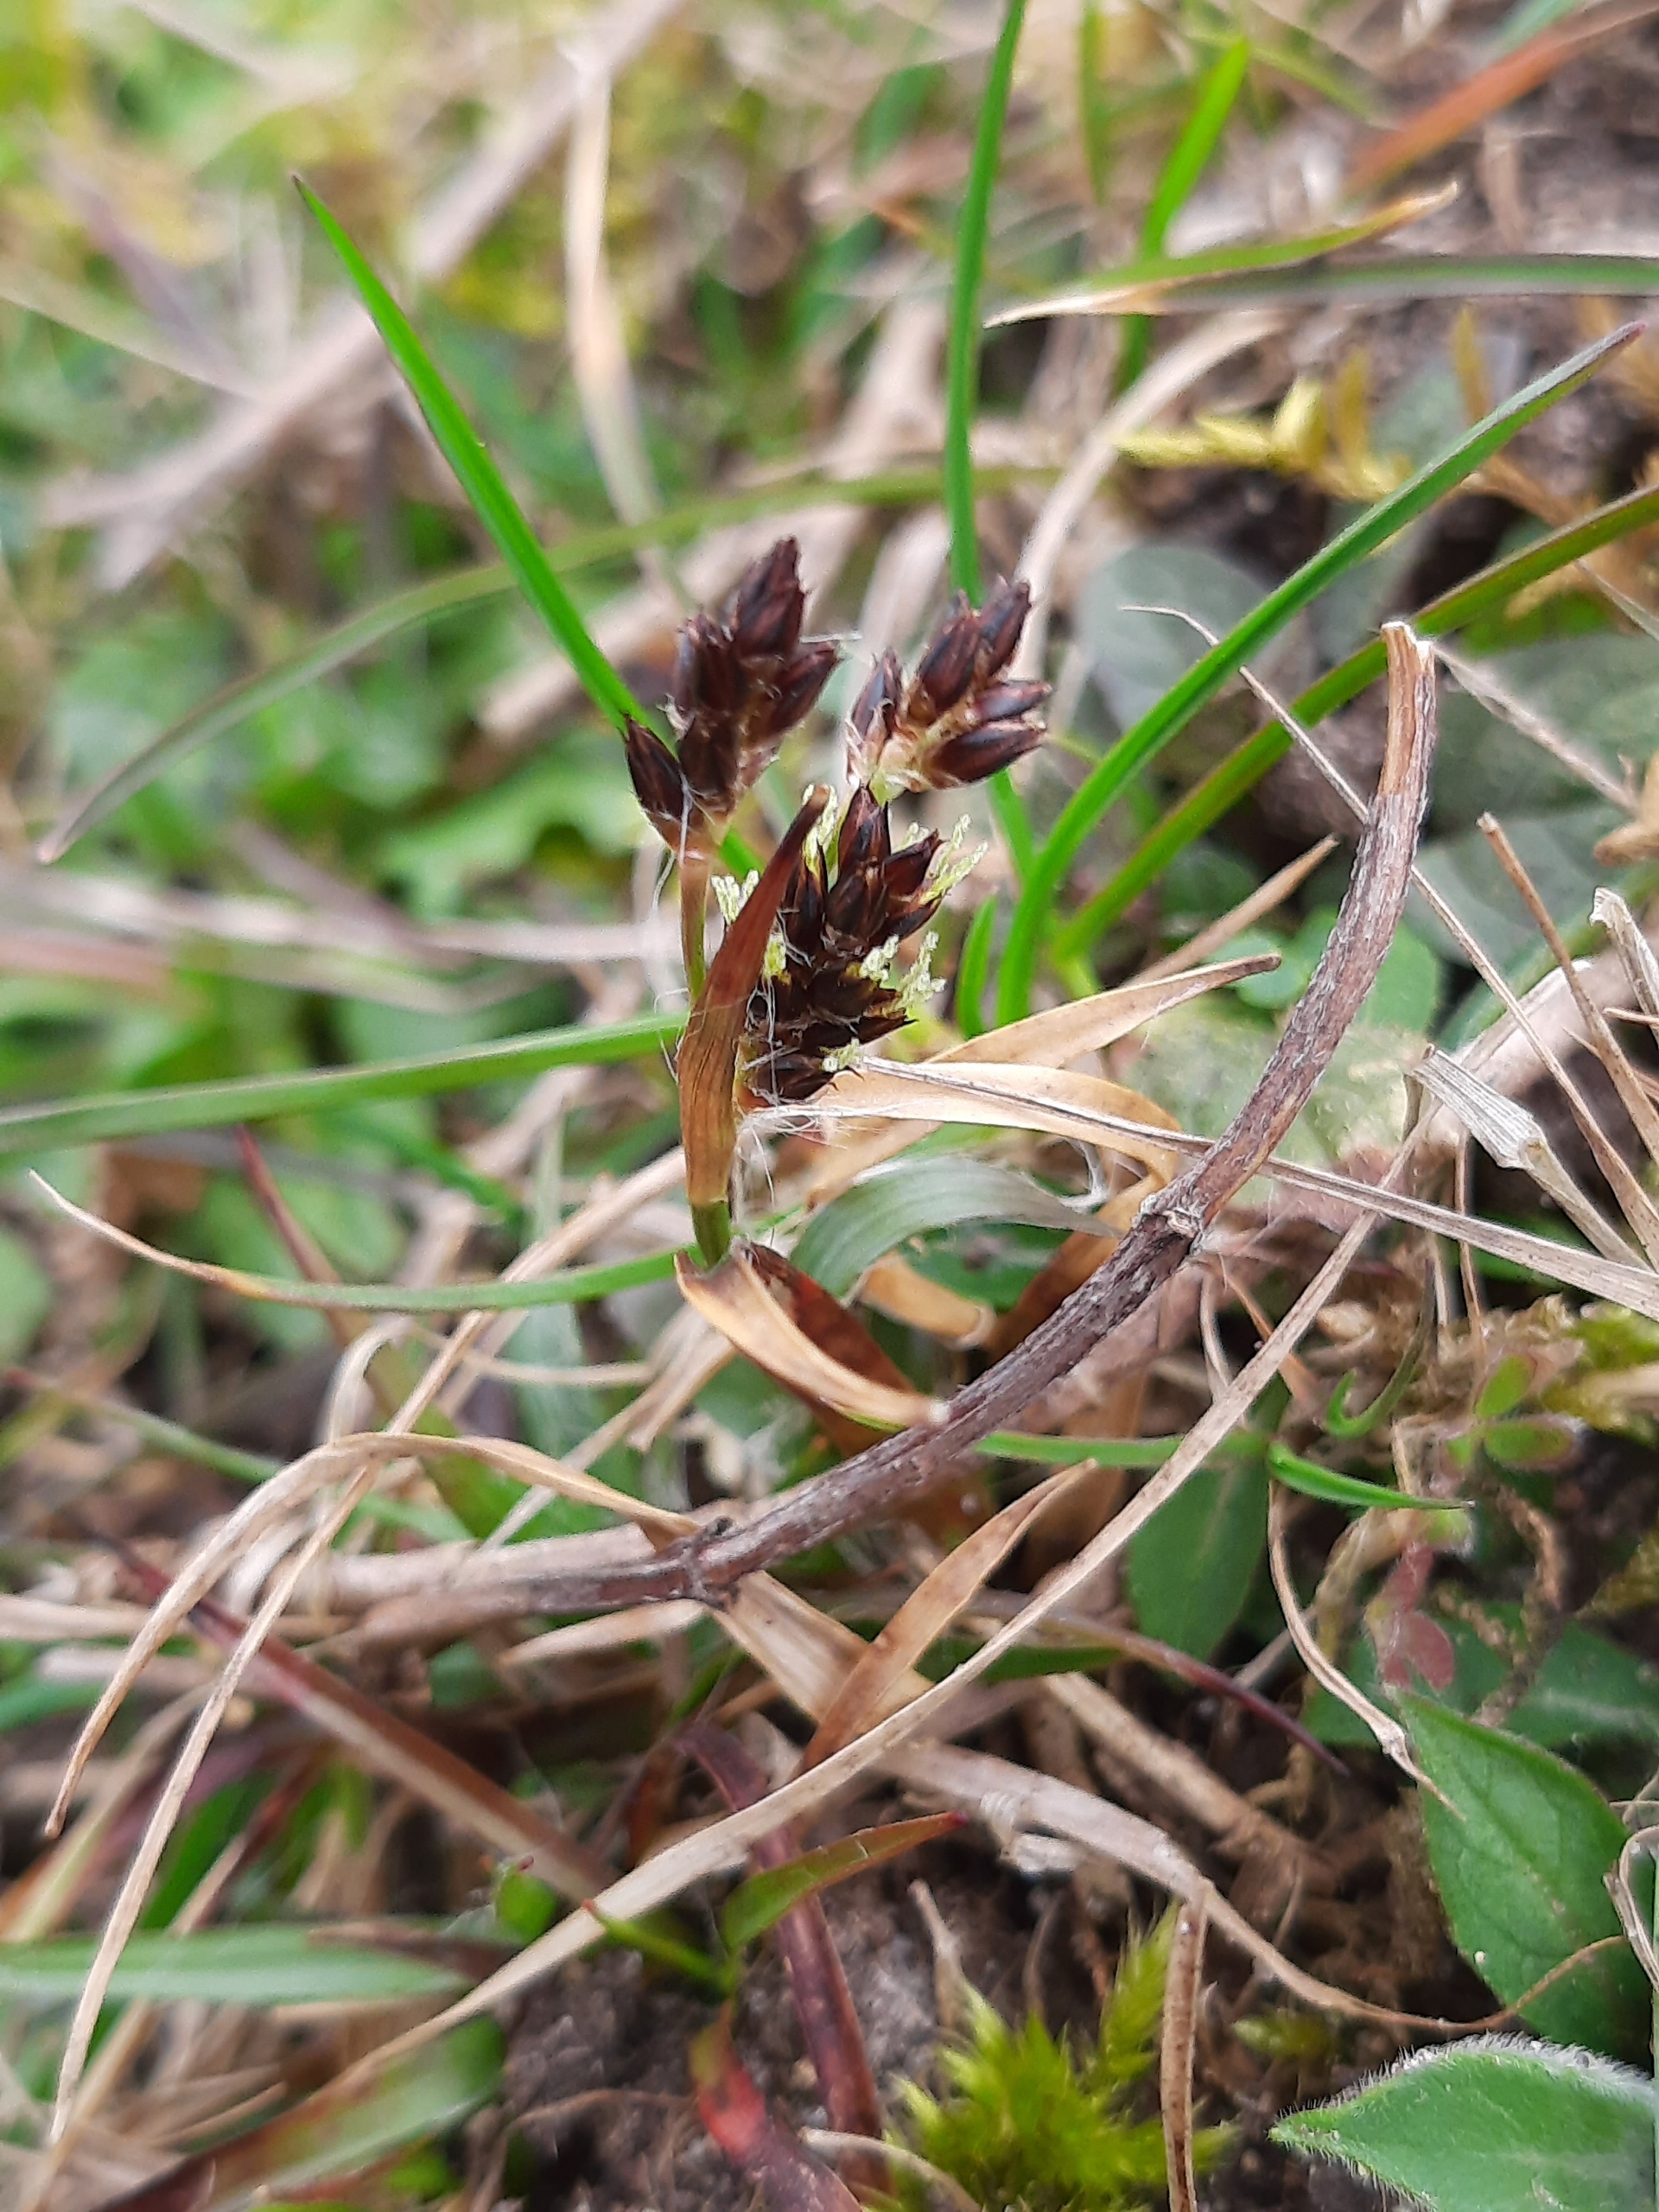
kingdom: Plantae
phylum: Tracheophyta
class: Liliopsida
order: Poales
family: Juncaceae
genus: Luzula
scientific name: Luzula campestris
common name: Mark-frytle
